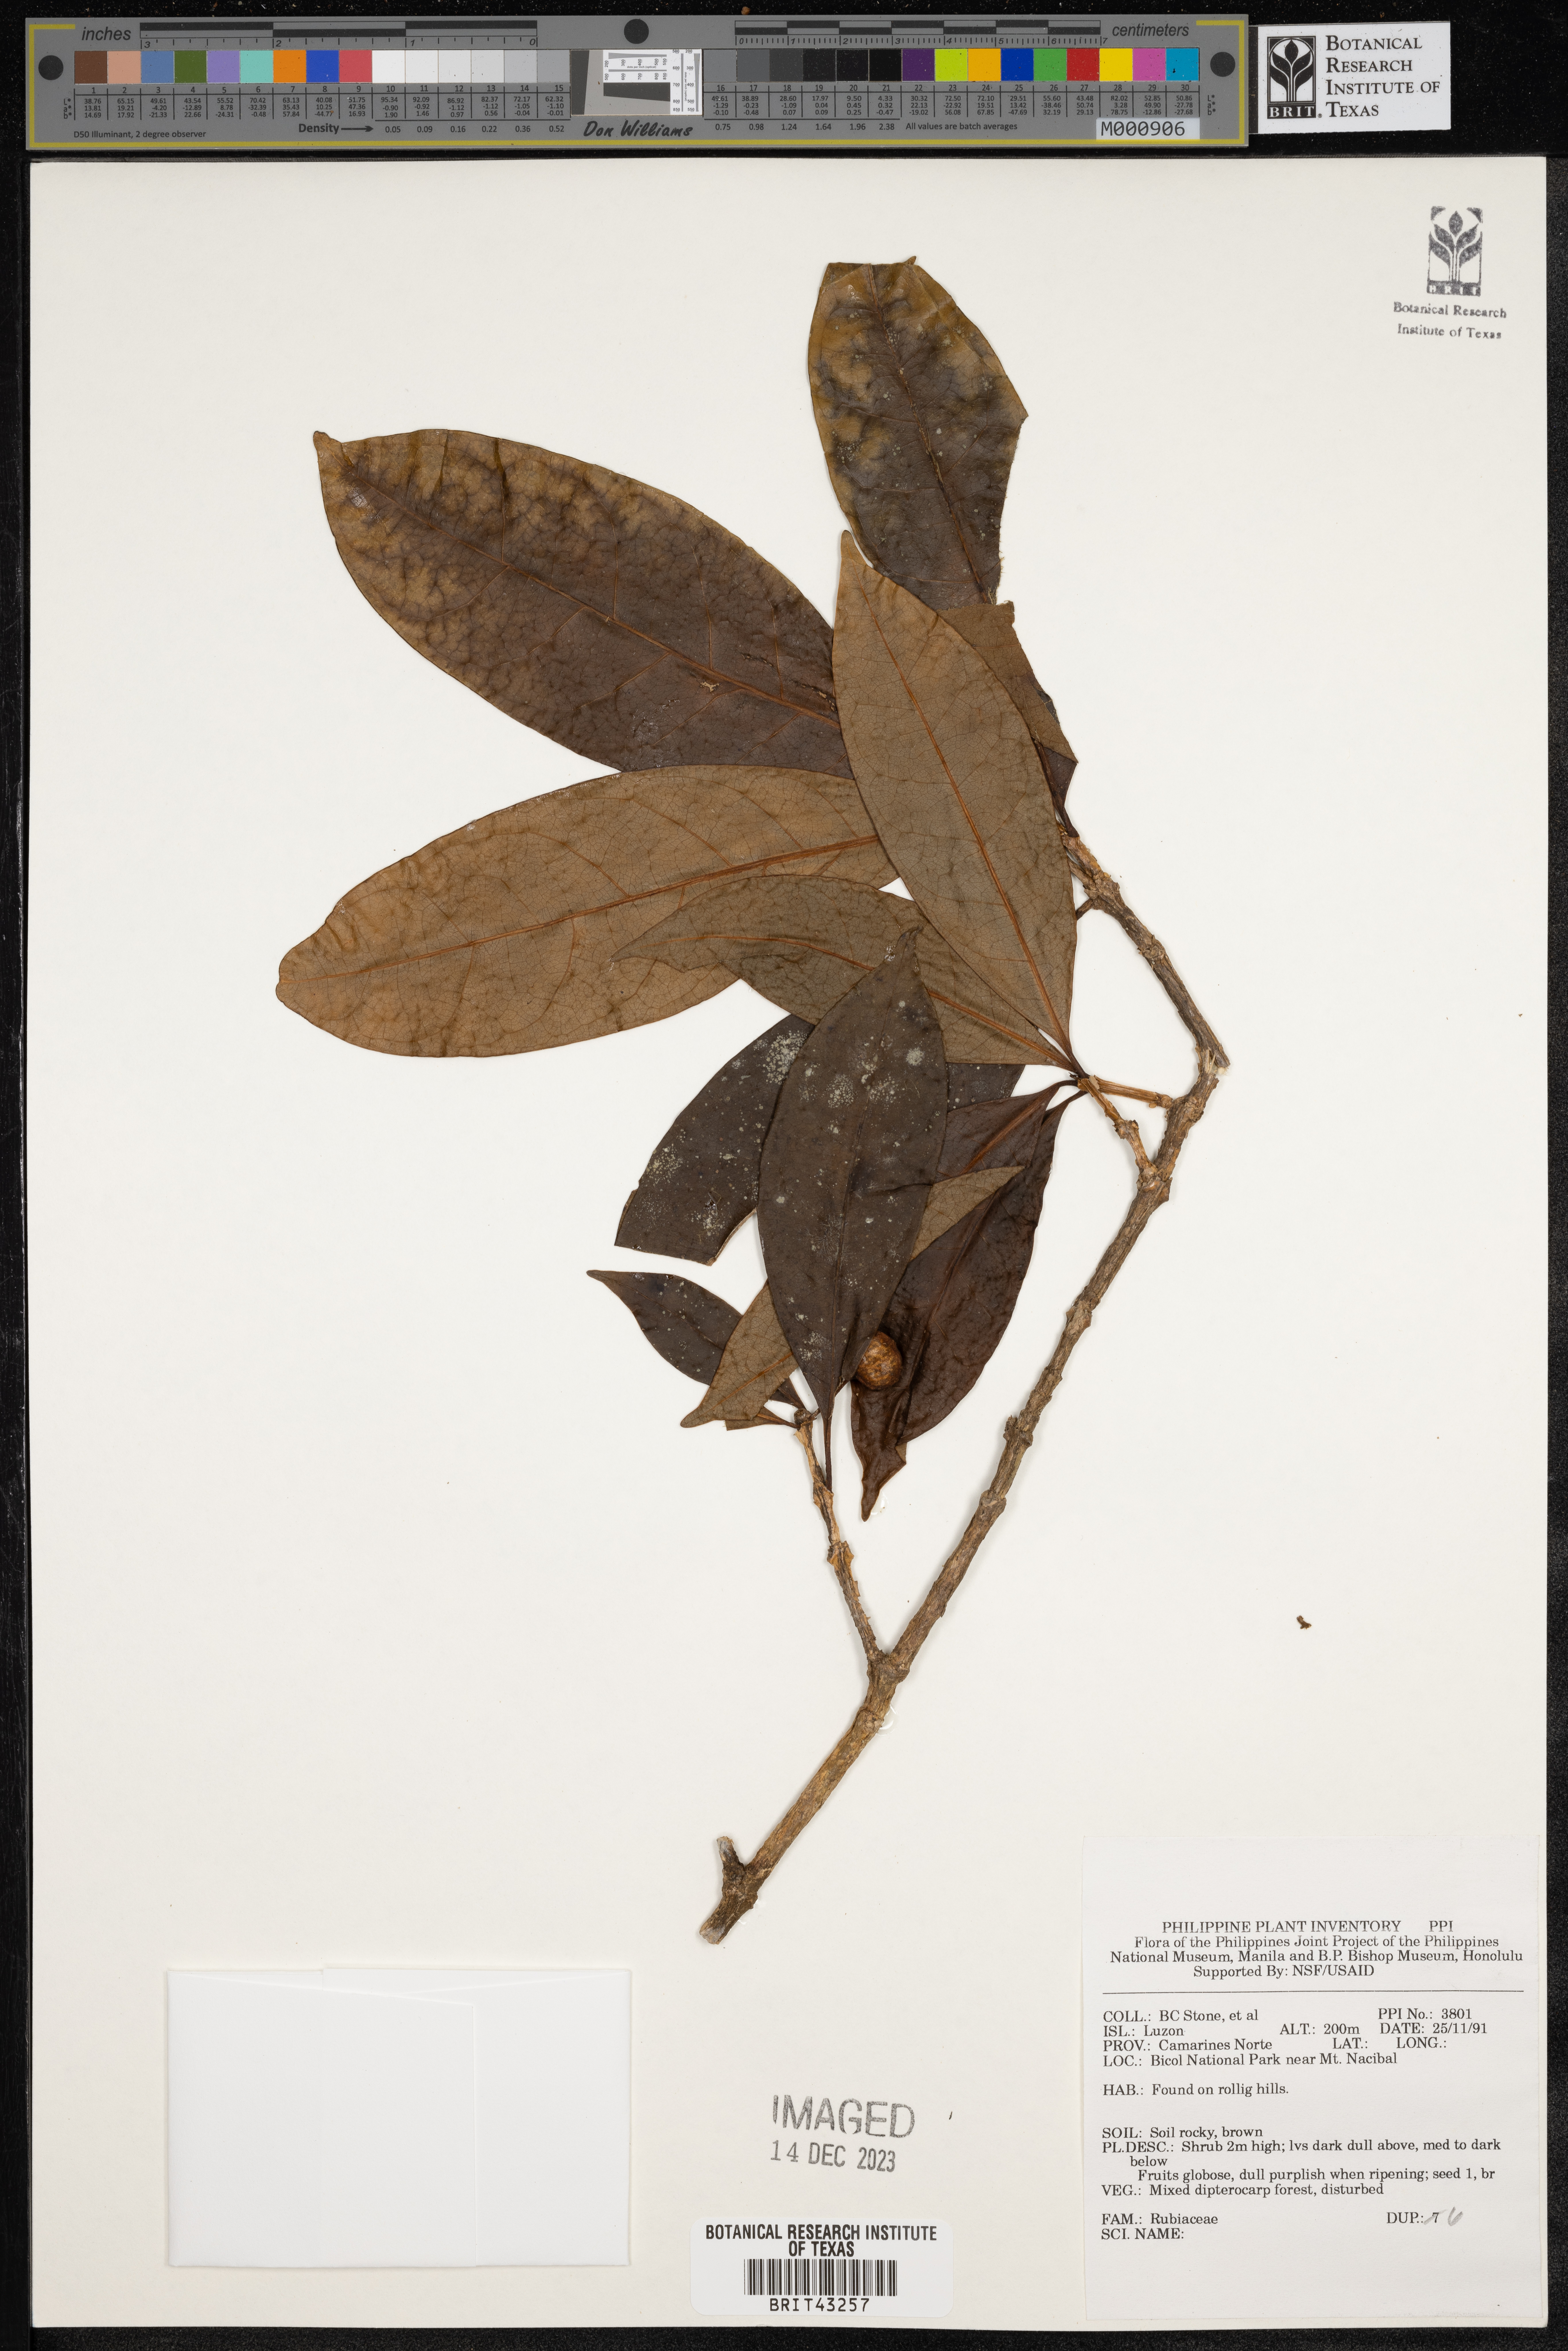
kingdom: Plantae
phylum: Tracheophyta
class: Magnoliopsida
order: Gentianales
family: Rubiaceae
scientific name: Rubiaceae
